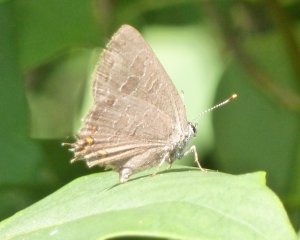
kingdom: Animalia
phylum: Arthropoda
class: Insecta
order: Lepidoptera
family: Lycaenidae
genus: Satyrium
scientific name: Satyrium liparops
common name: Striped Hairstreak
